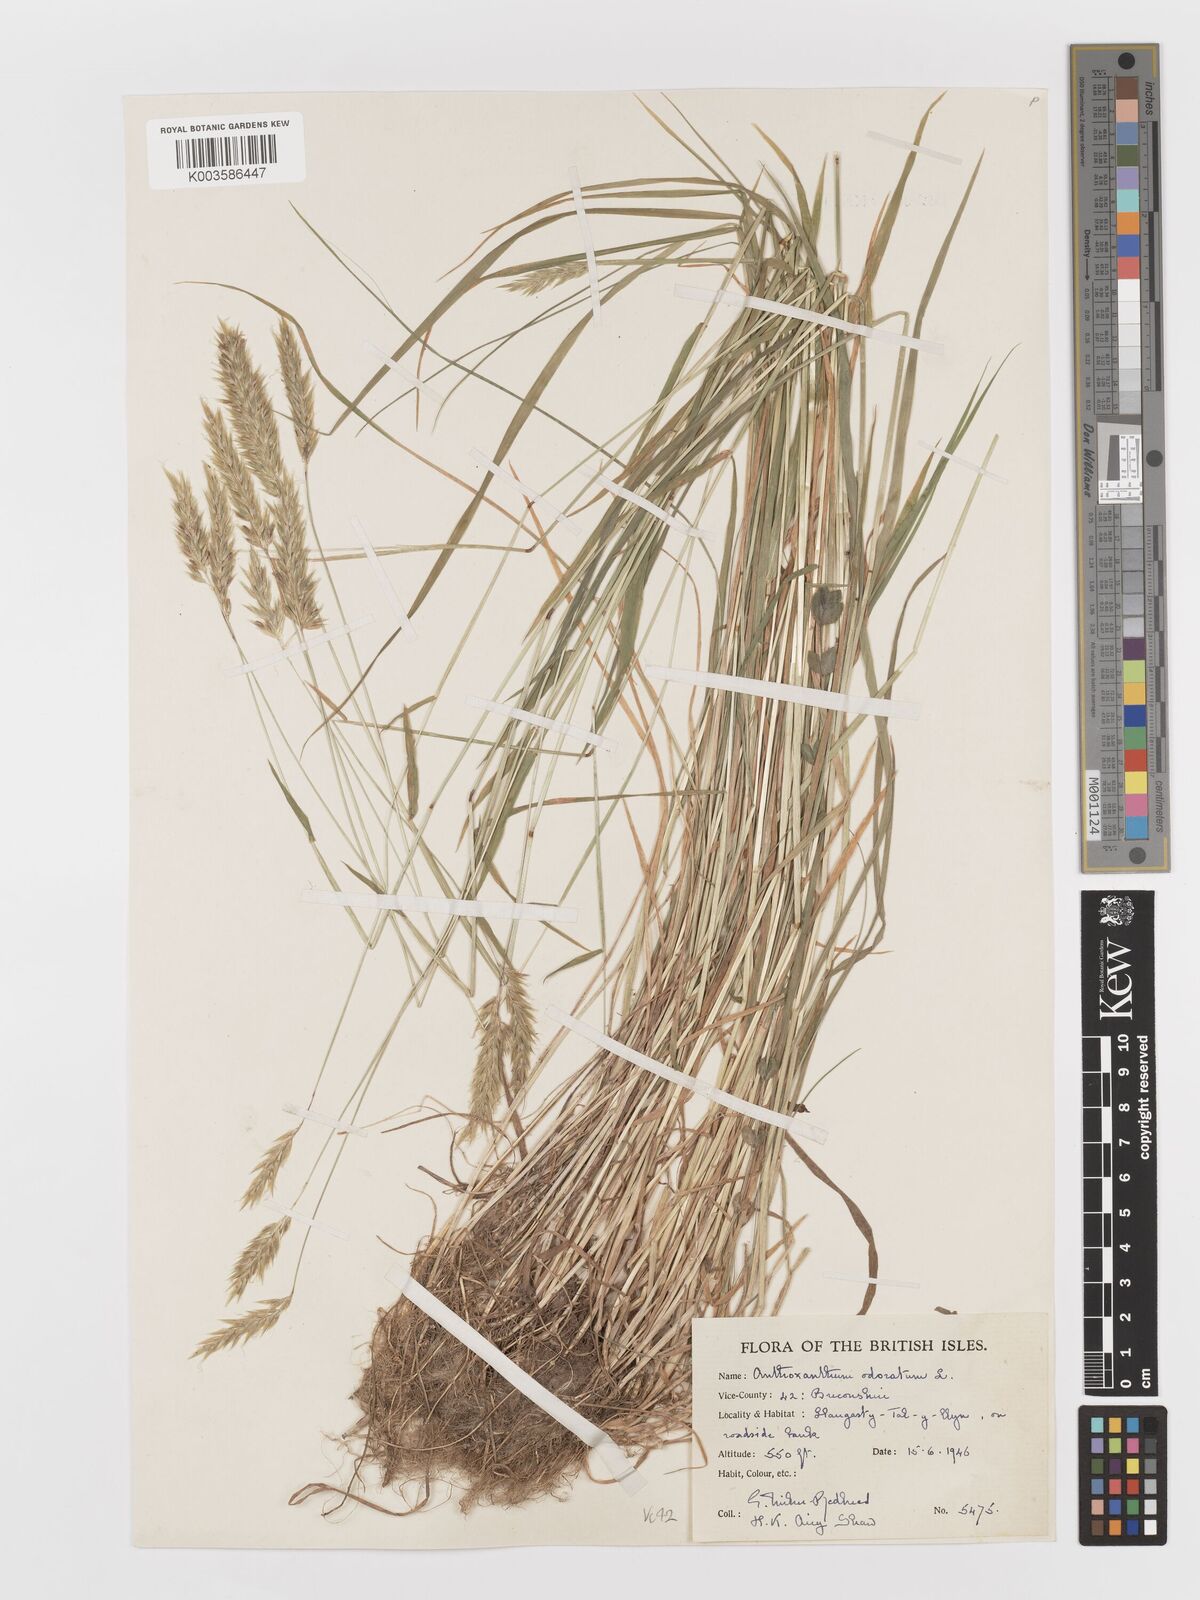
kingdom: Plantae
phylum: Tracheophyta
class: Liliopsida
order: Poales
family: Poaceae
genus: Anthoxanthum
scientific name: Anthoxanthum odoratum
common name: Sweet vernalgrass
